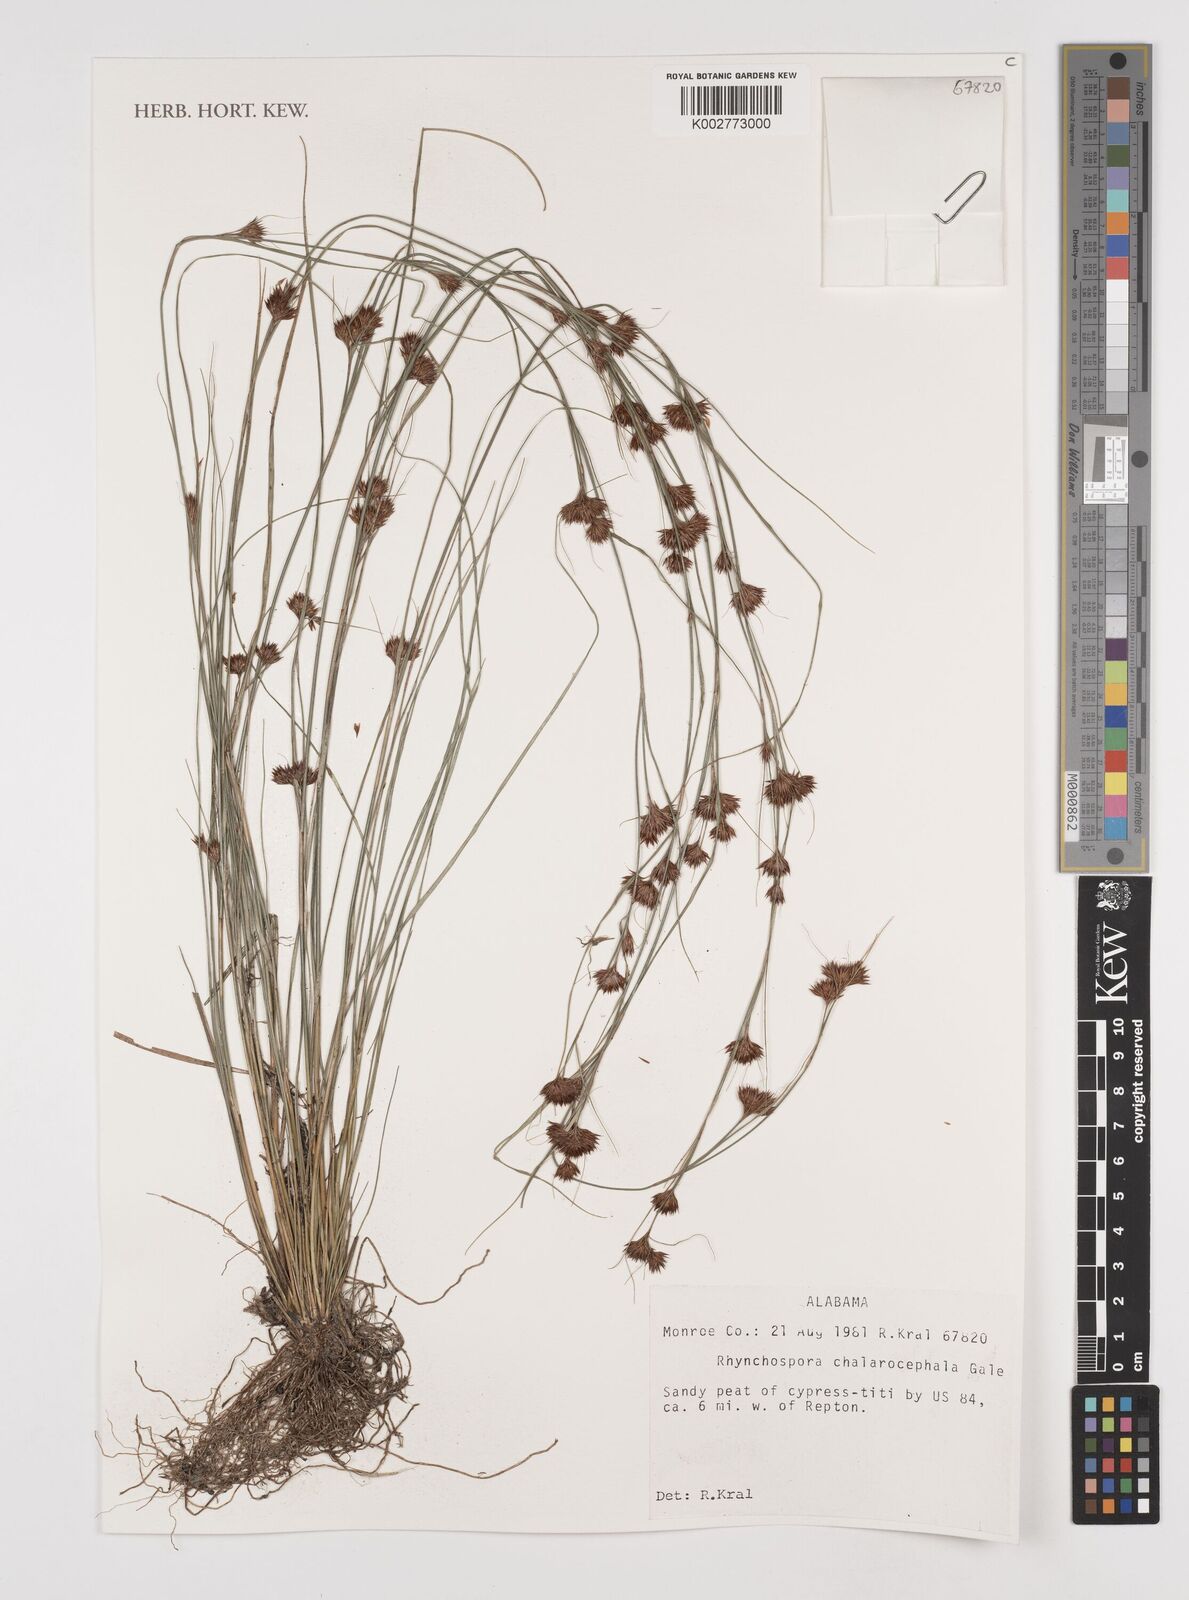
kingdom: Plantae
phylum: Tracheophyta
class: Liliopsida
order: Poales
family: Cyperaceae
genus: Rhynchospora
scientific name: Rhynchospora chalarocephala
